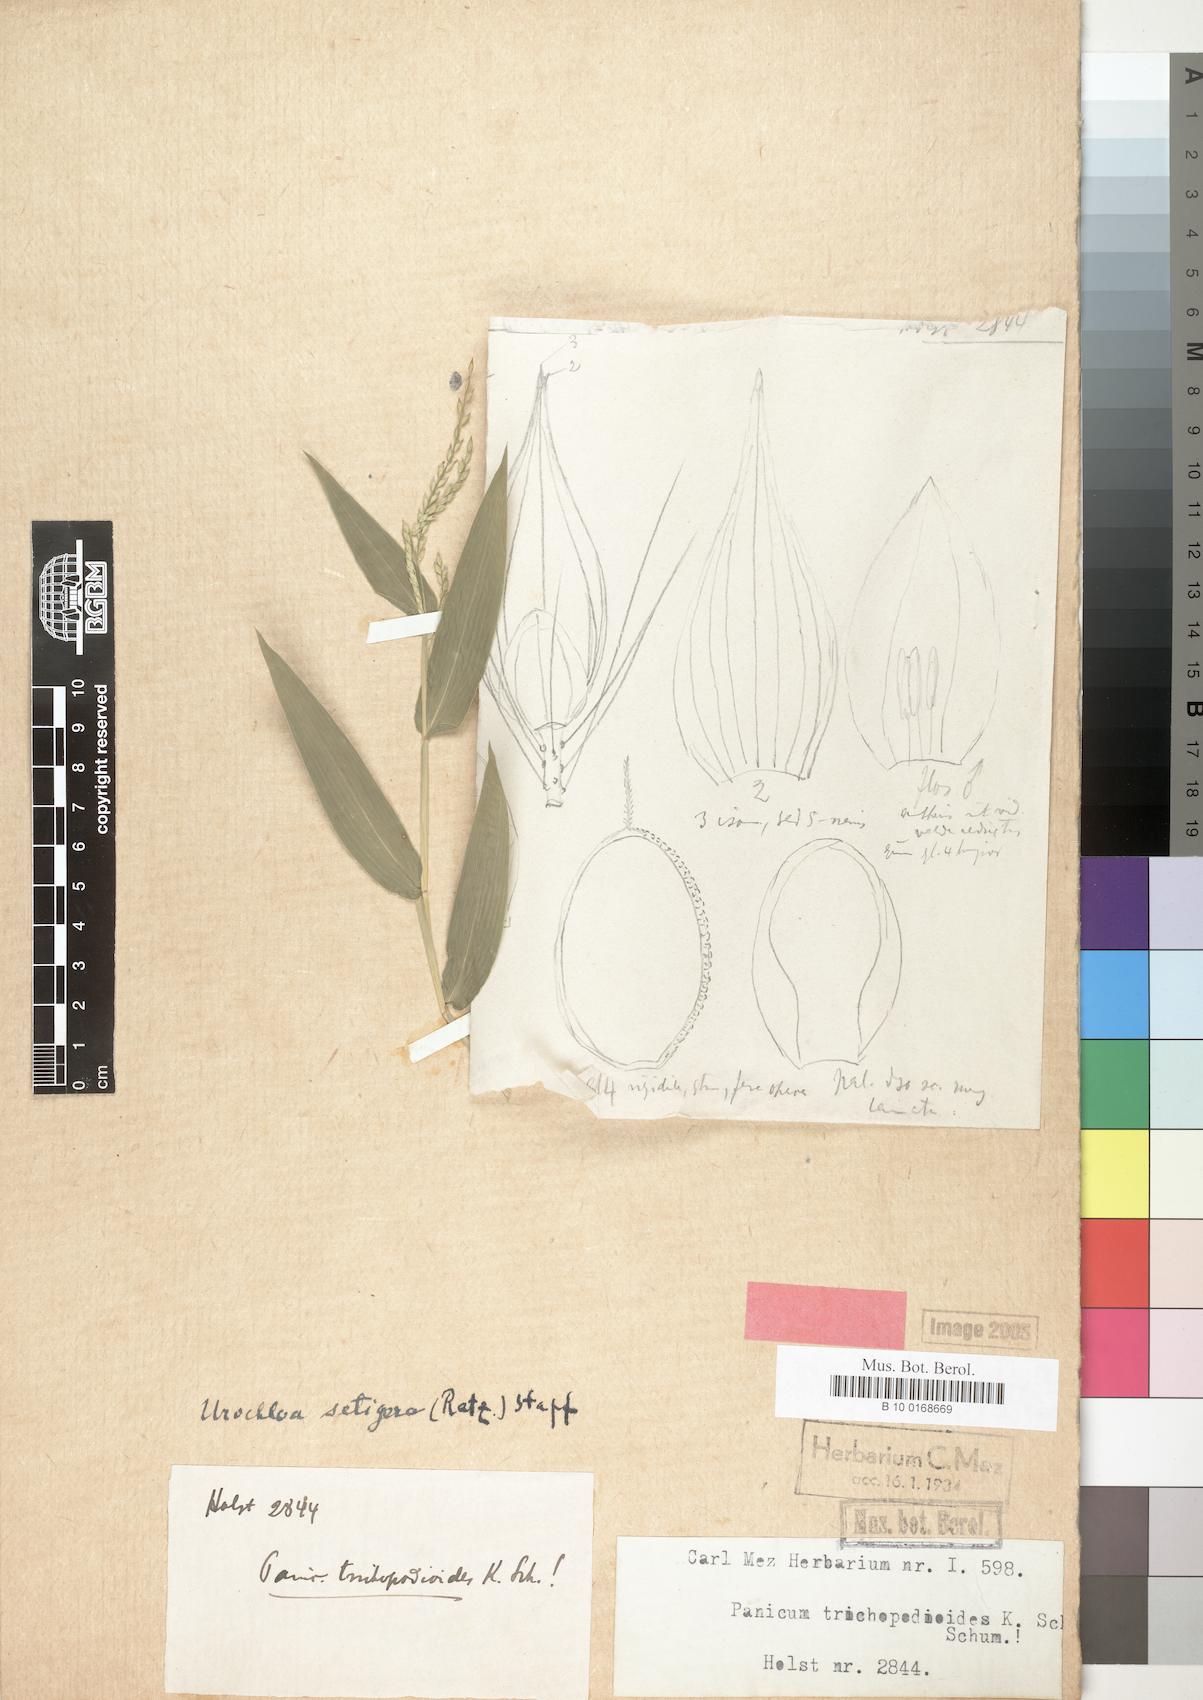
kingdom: Plantae
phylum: Tracheophyta
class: Liliopsida
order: Poales
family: Poaceae
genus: Urochloa
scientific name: Urochloa trichopodioides
